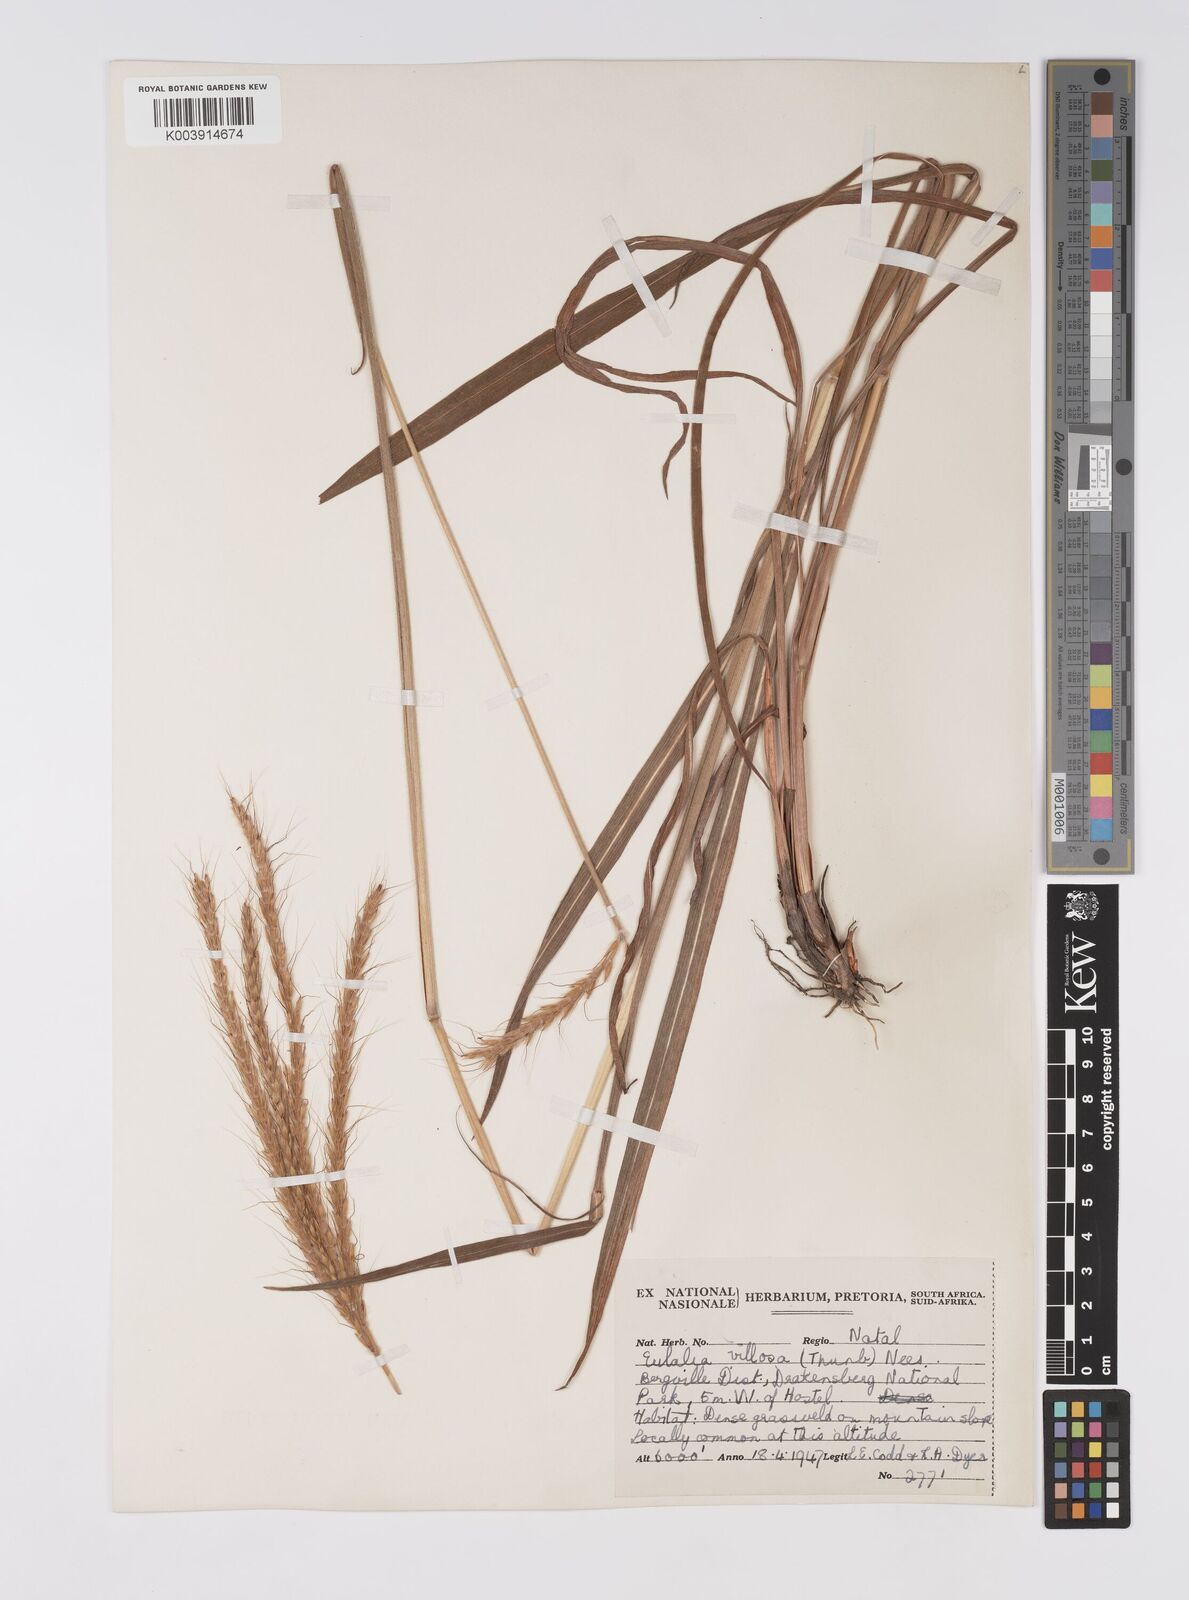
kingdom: Plantae
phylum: Tracheophyta
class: Liliopsida
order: Poales
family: Poaceae
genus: Eulalia
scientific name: Eulalia villosa
